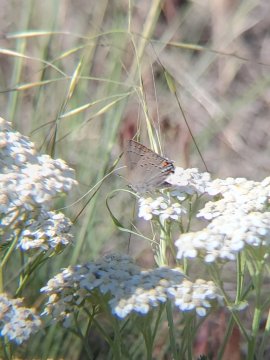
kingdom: Animalia
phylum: Arthropoda
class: Insecta
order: Lepidoptera
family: Lycaenidae
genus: Strymon
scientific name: Strymon acadica
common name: California Hairstreak
